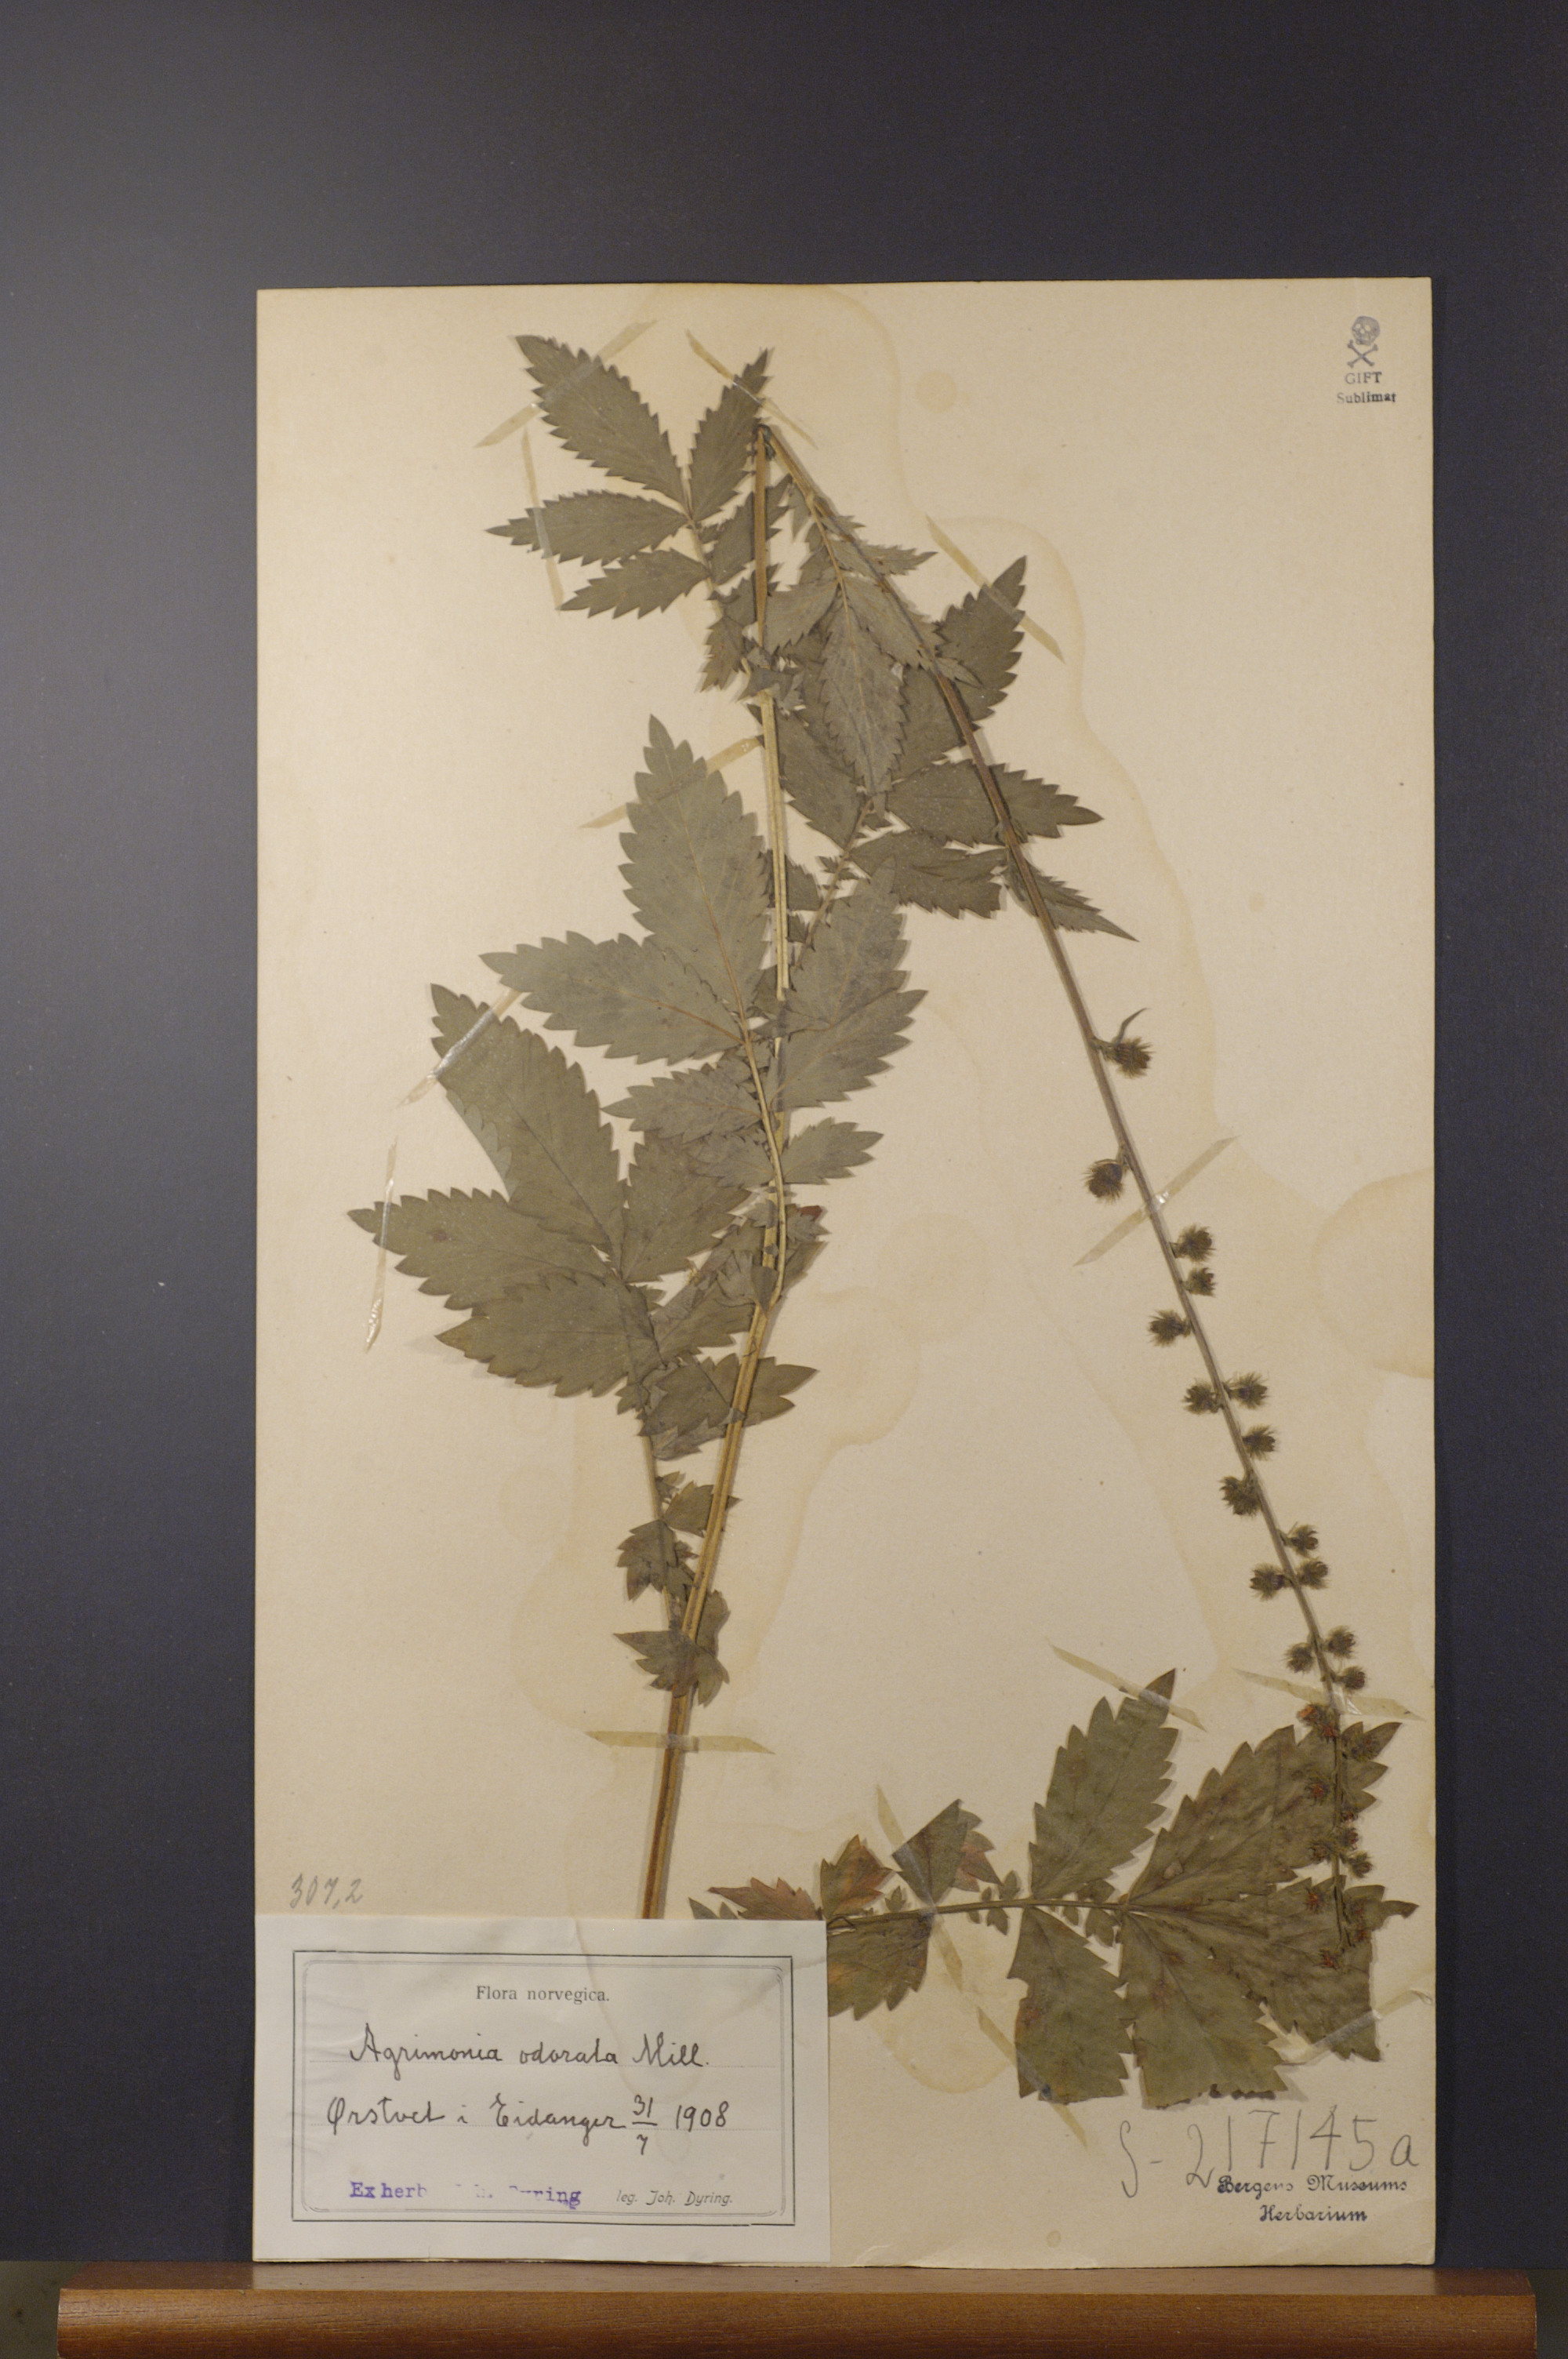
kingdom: Plantae
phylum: Tracheophyta
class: Magnoliopsida
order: Rosales
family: Rosaceae
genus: Agrimonia
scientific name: Agrimonia procera
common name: Fragrant agrimony
